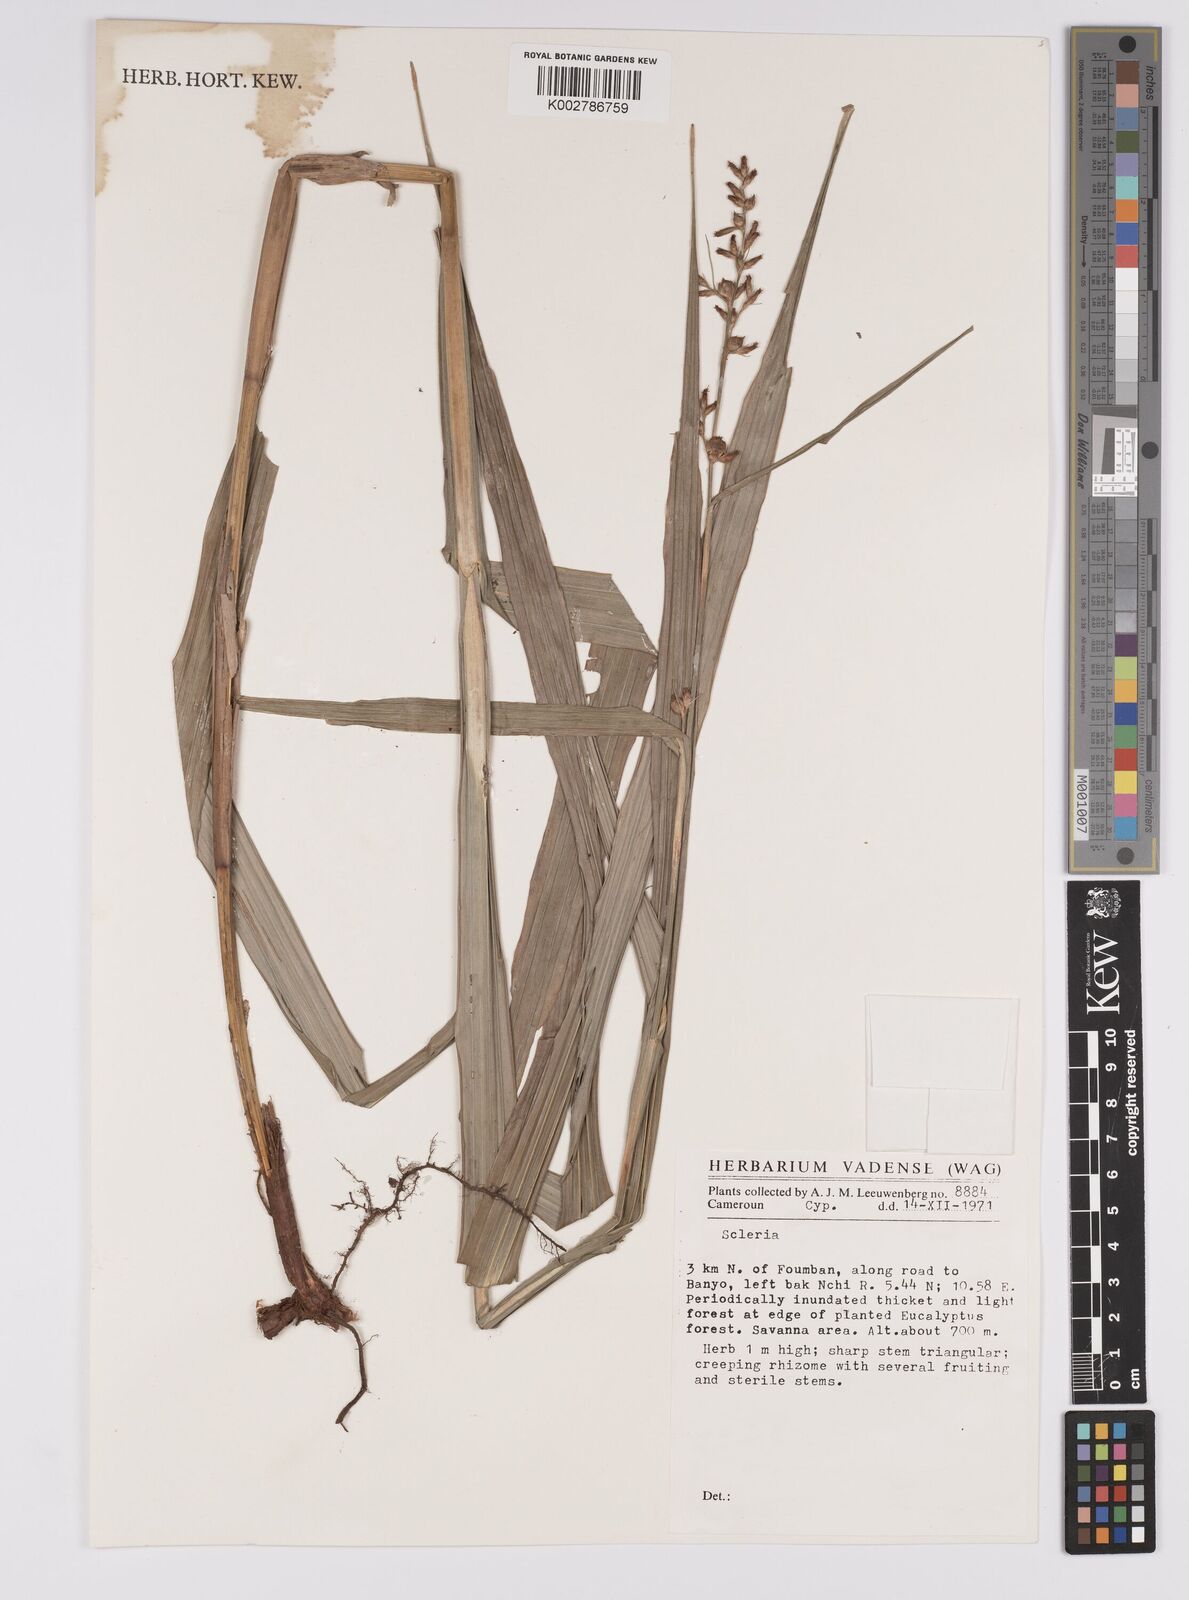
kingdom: Plantae
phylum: Tracheophyta
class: Liliopsida
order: Poales
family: Cyperaceae
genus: Scleria
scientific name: Scleria
